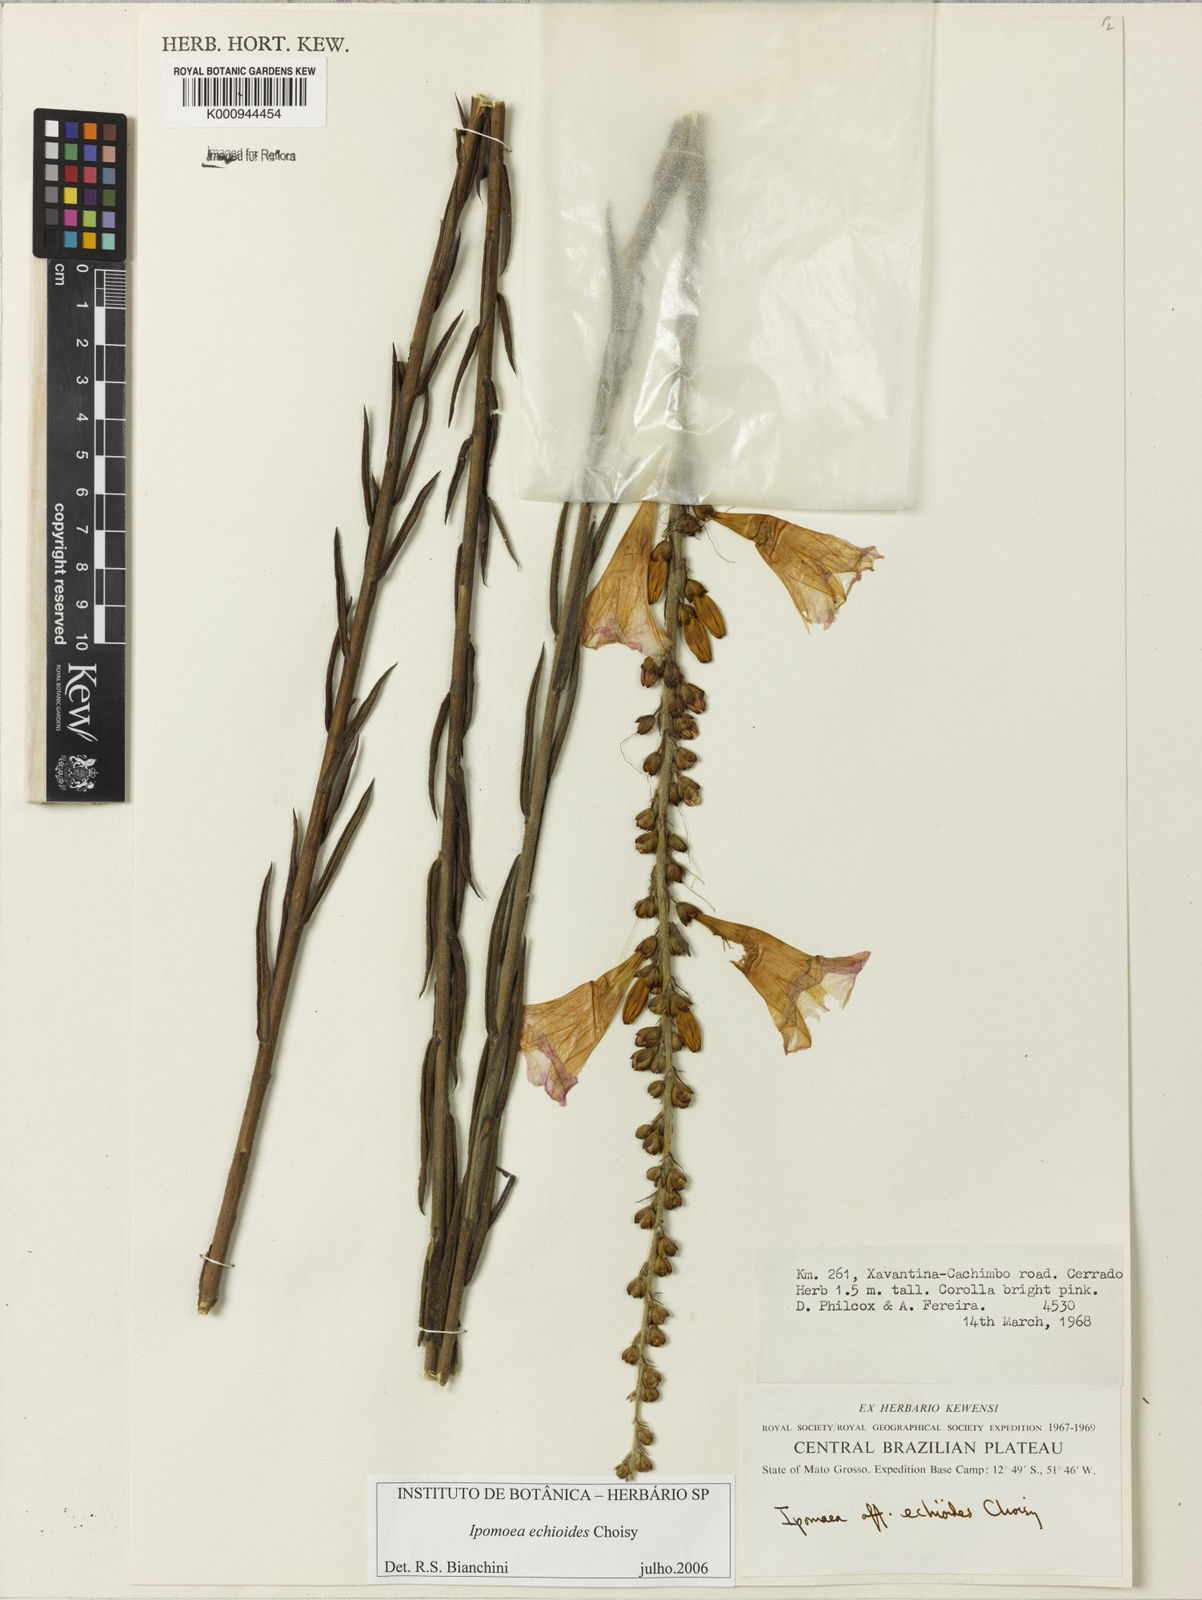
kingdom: Plantae
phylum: Tracheophyta
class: Magnoliopsida
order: Solanales
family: Convolvulaceae
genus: Ipomoea
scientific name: Ipomoea paulistana
